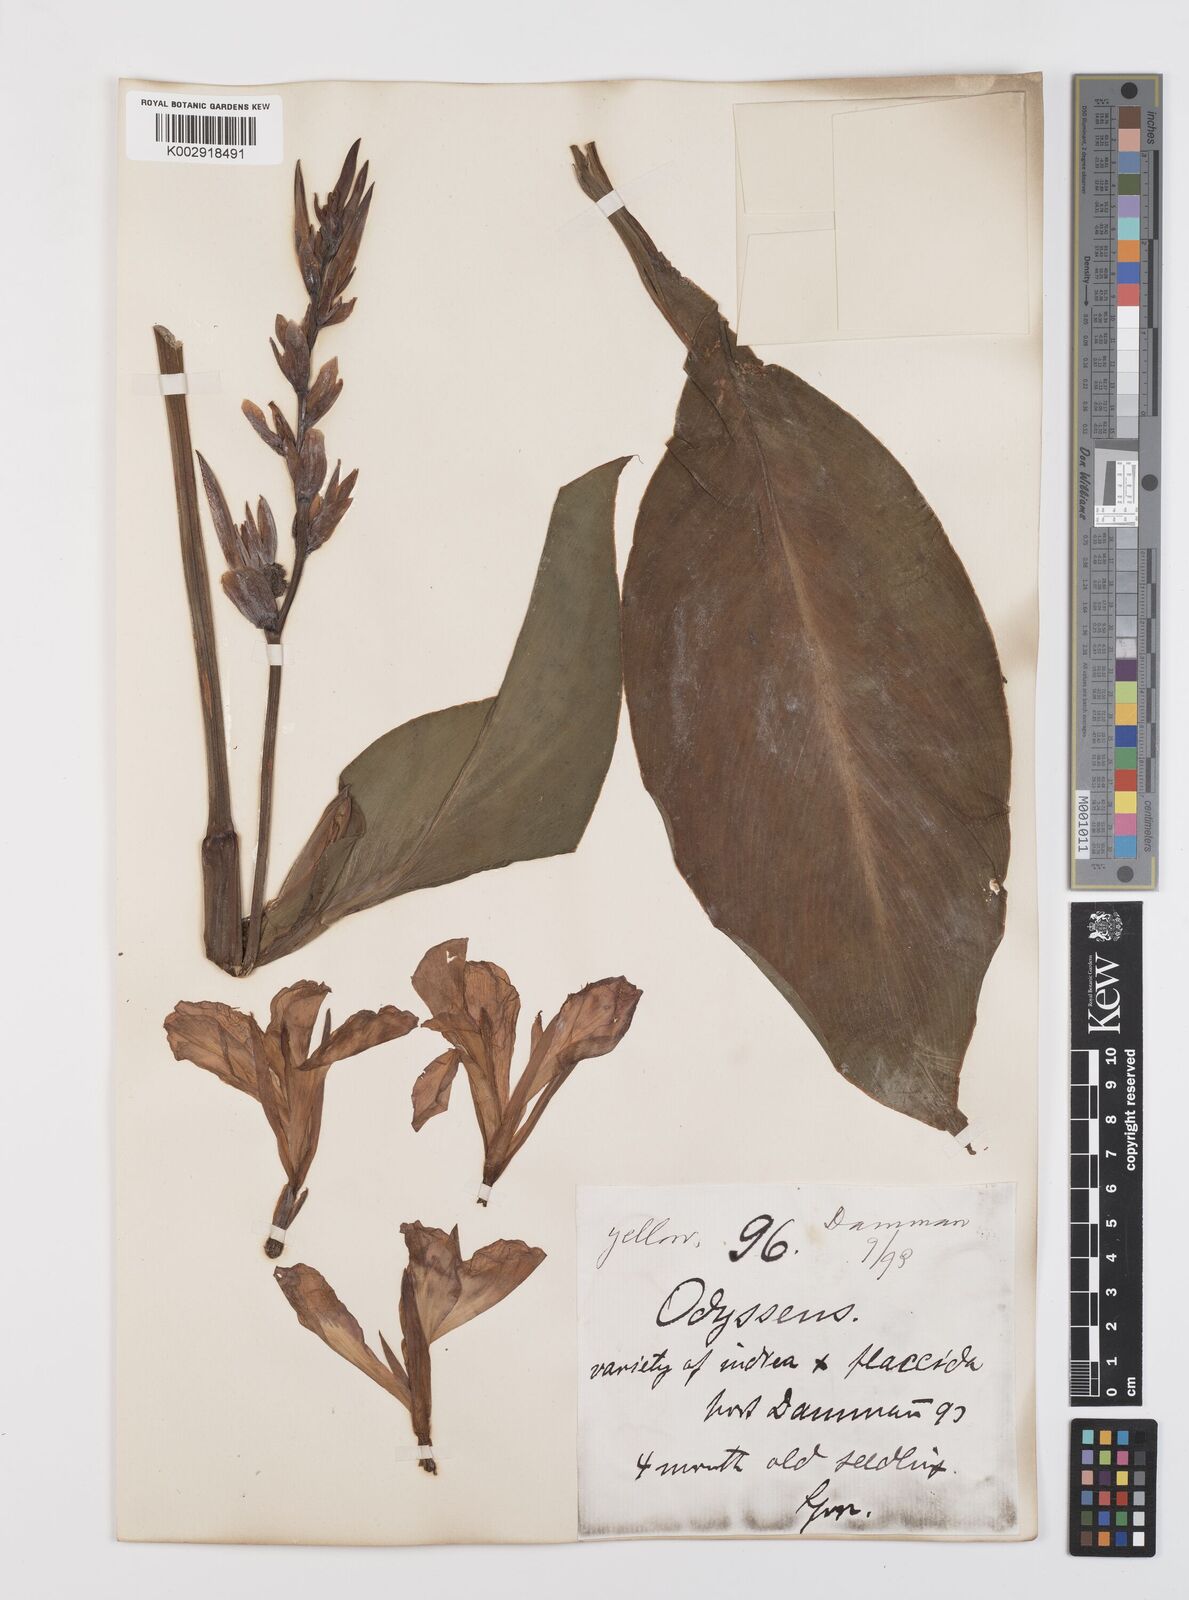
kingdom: Plantae
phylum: Tracheophyta
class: Liliopsida
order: Zingiberales
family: Cannaceae
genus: Canna
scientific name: Canna indica
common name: Indian shot
